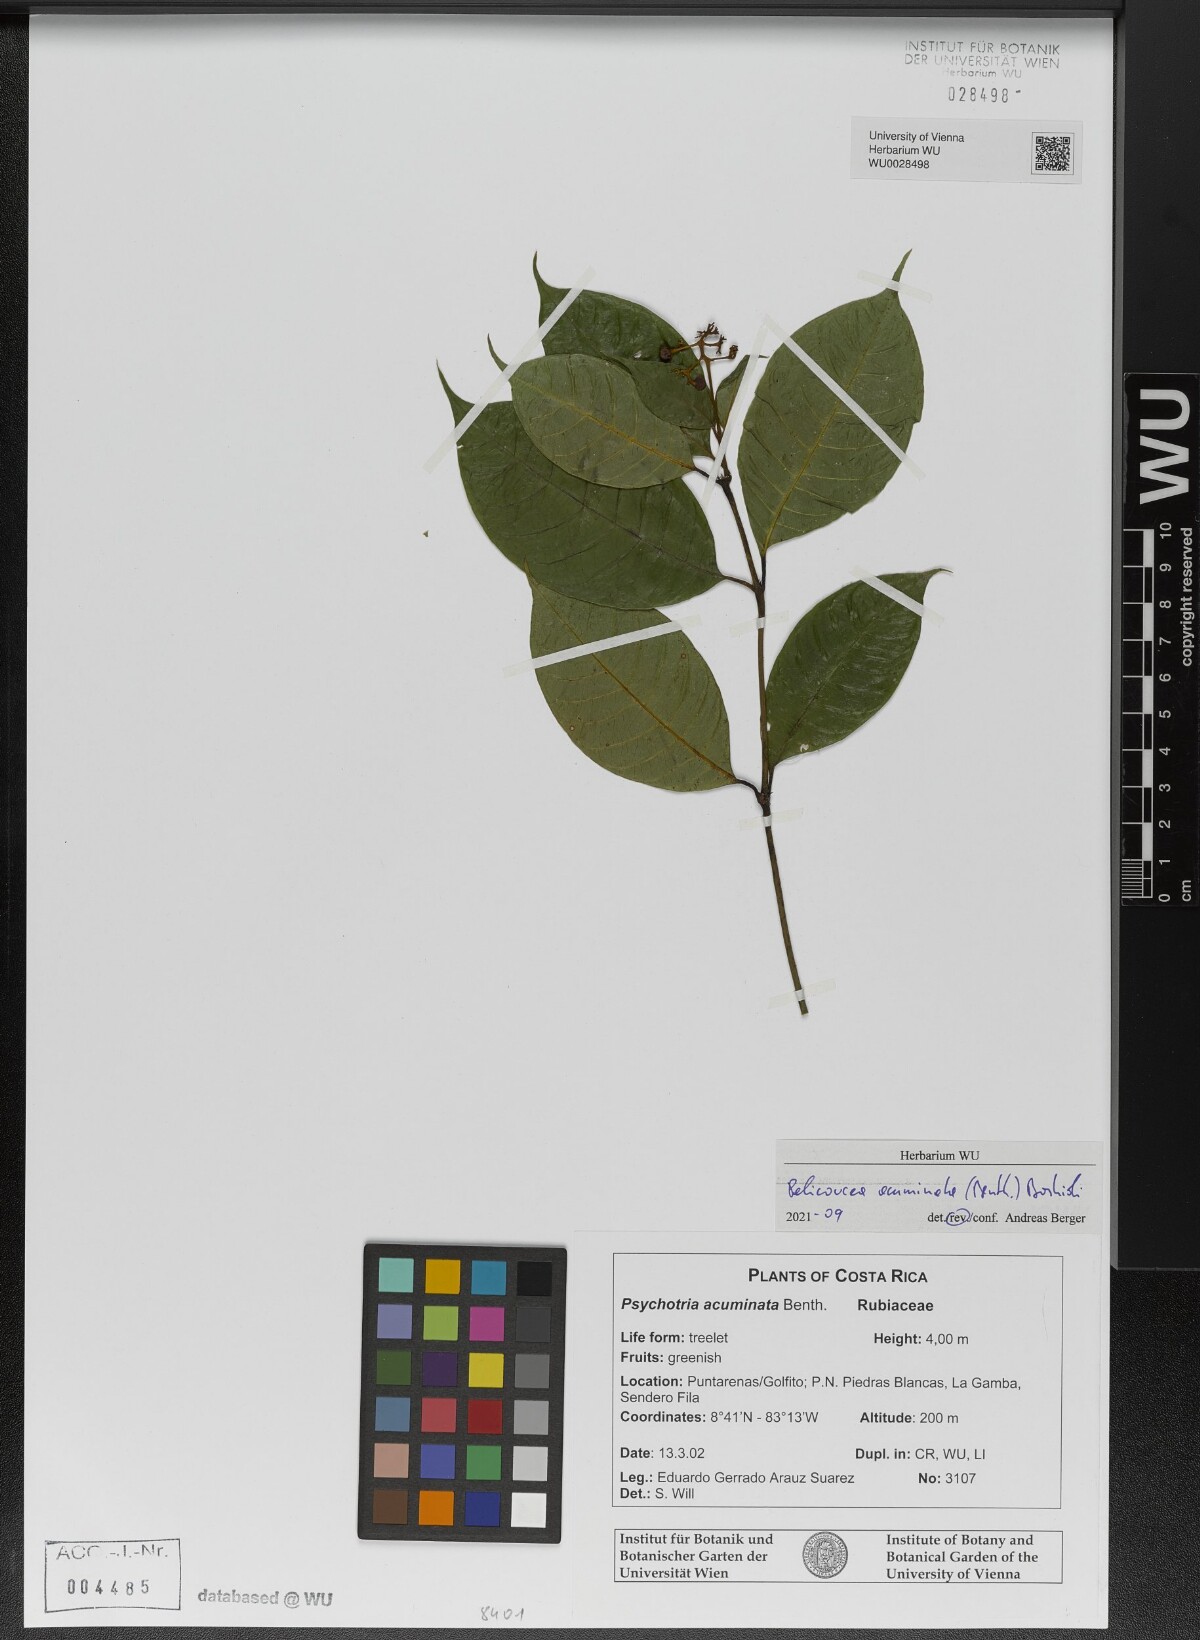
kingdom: Plantae
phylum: Tracheophyta
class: Magnoliopsida
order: Gentianales
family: Rubiaceae
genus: Palicourea
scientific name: Palicourea acuminata
